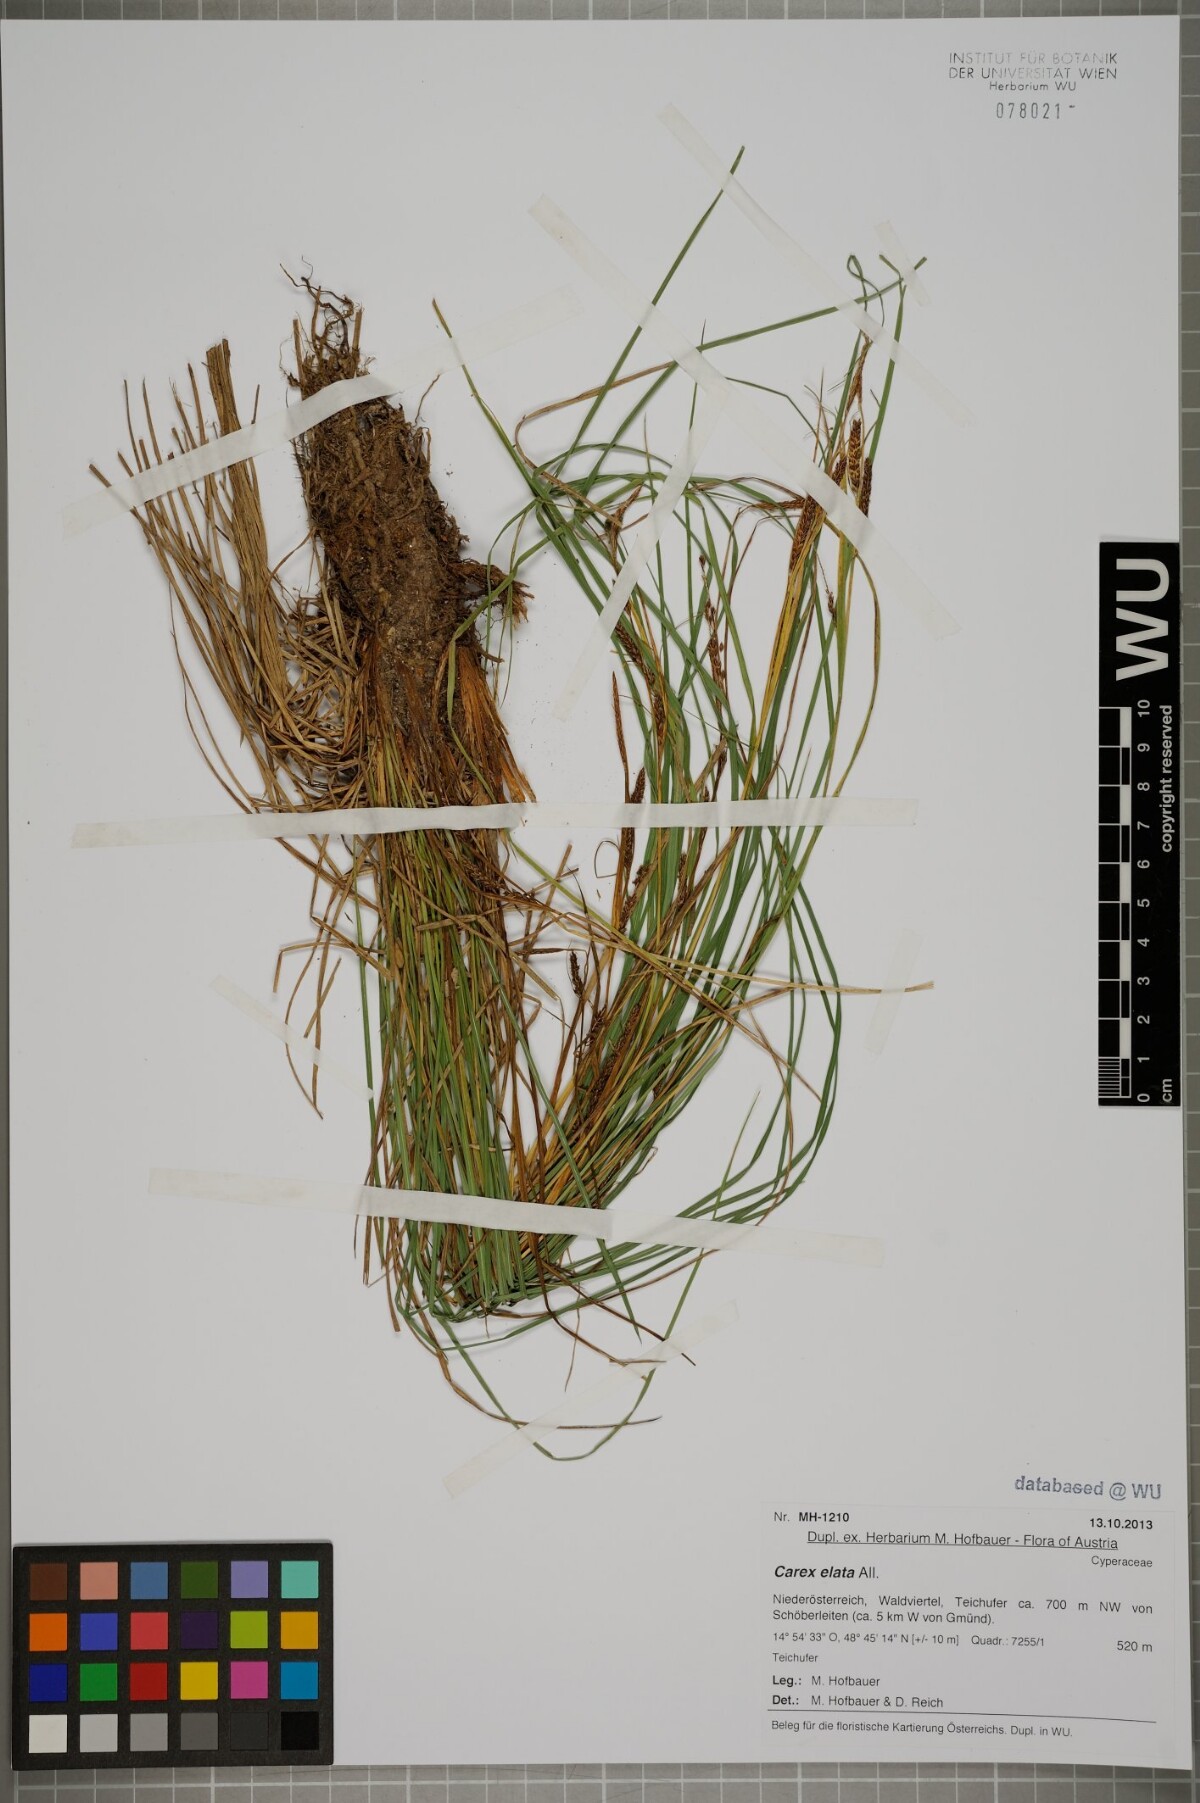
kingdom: Plantae
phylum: Tracheophyta
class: Liliopsida
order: Poales
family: Cyperaceae
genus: Carex
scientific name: Carex elata
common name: Tufted sedge
